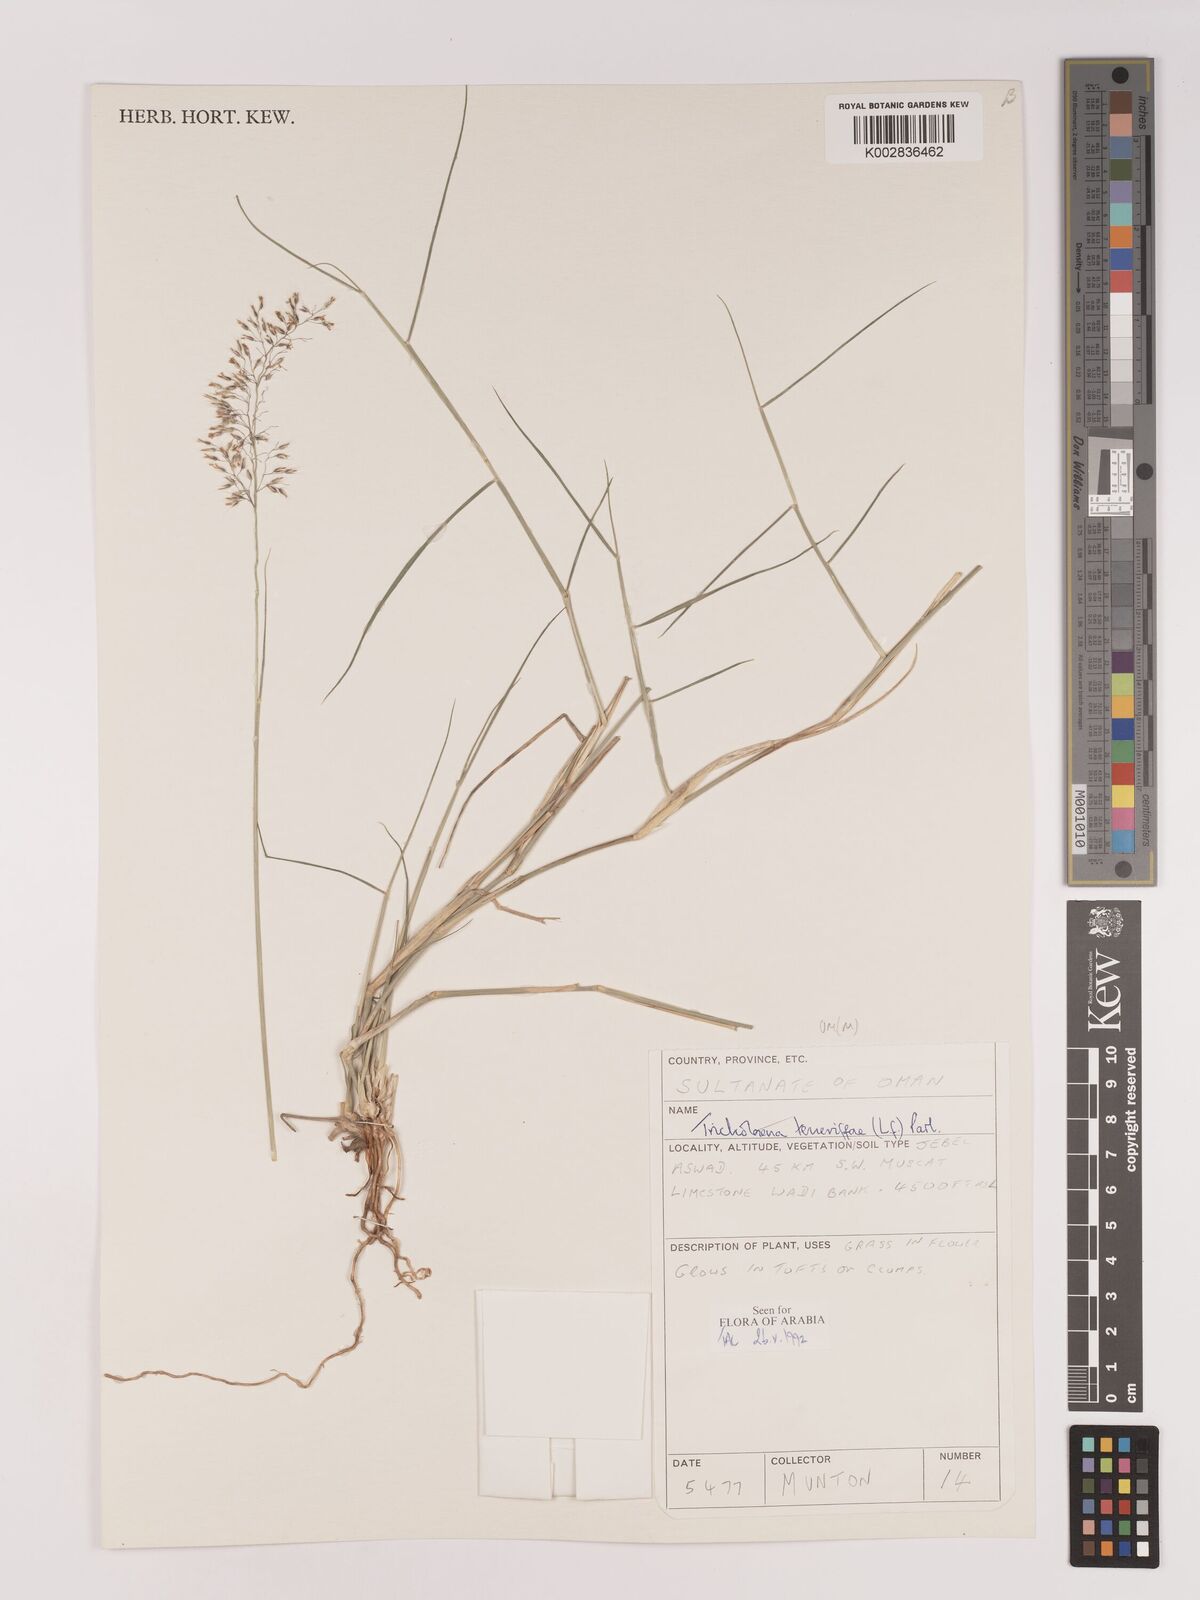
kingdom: Plantae
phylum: Tracheophyta
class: Liliopsida
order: Poales
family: Poaceae
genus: Tricholaena
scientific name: Tricholaena teneriffae
